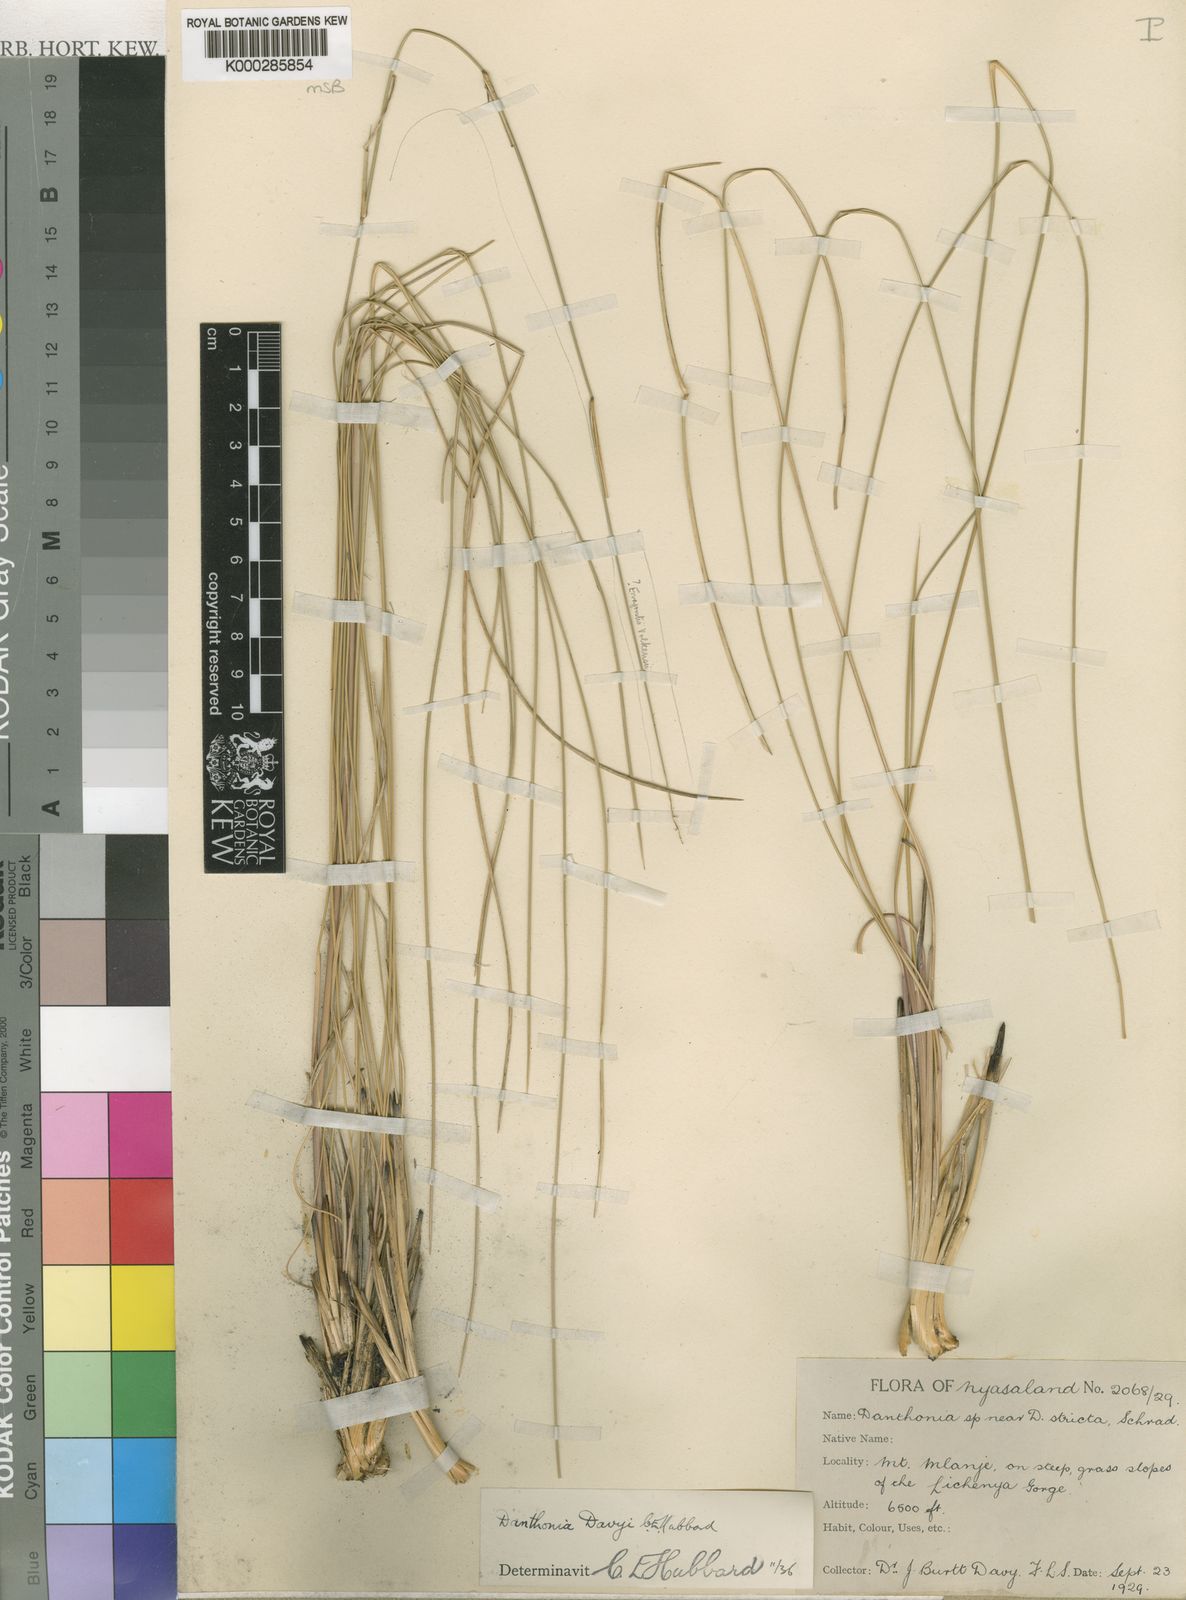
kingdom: Plantae
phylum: Tracheophyta
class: Liliopsida
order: Poales
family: Poaceae
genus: Merxmuellera
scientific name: Merxmuellera davyi
